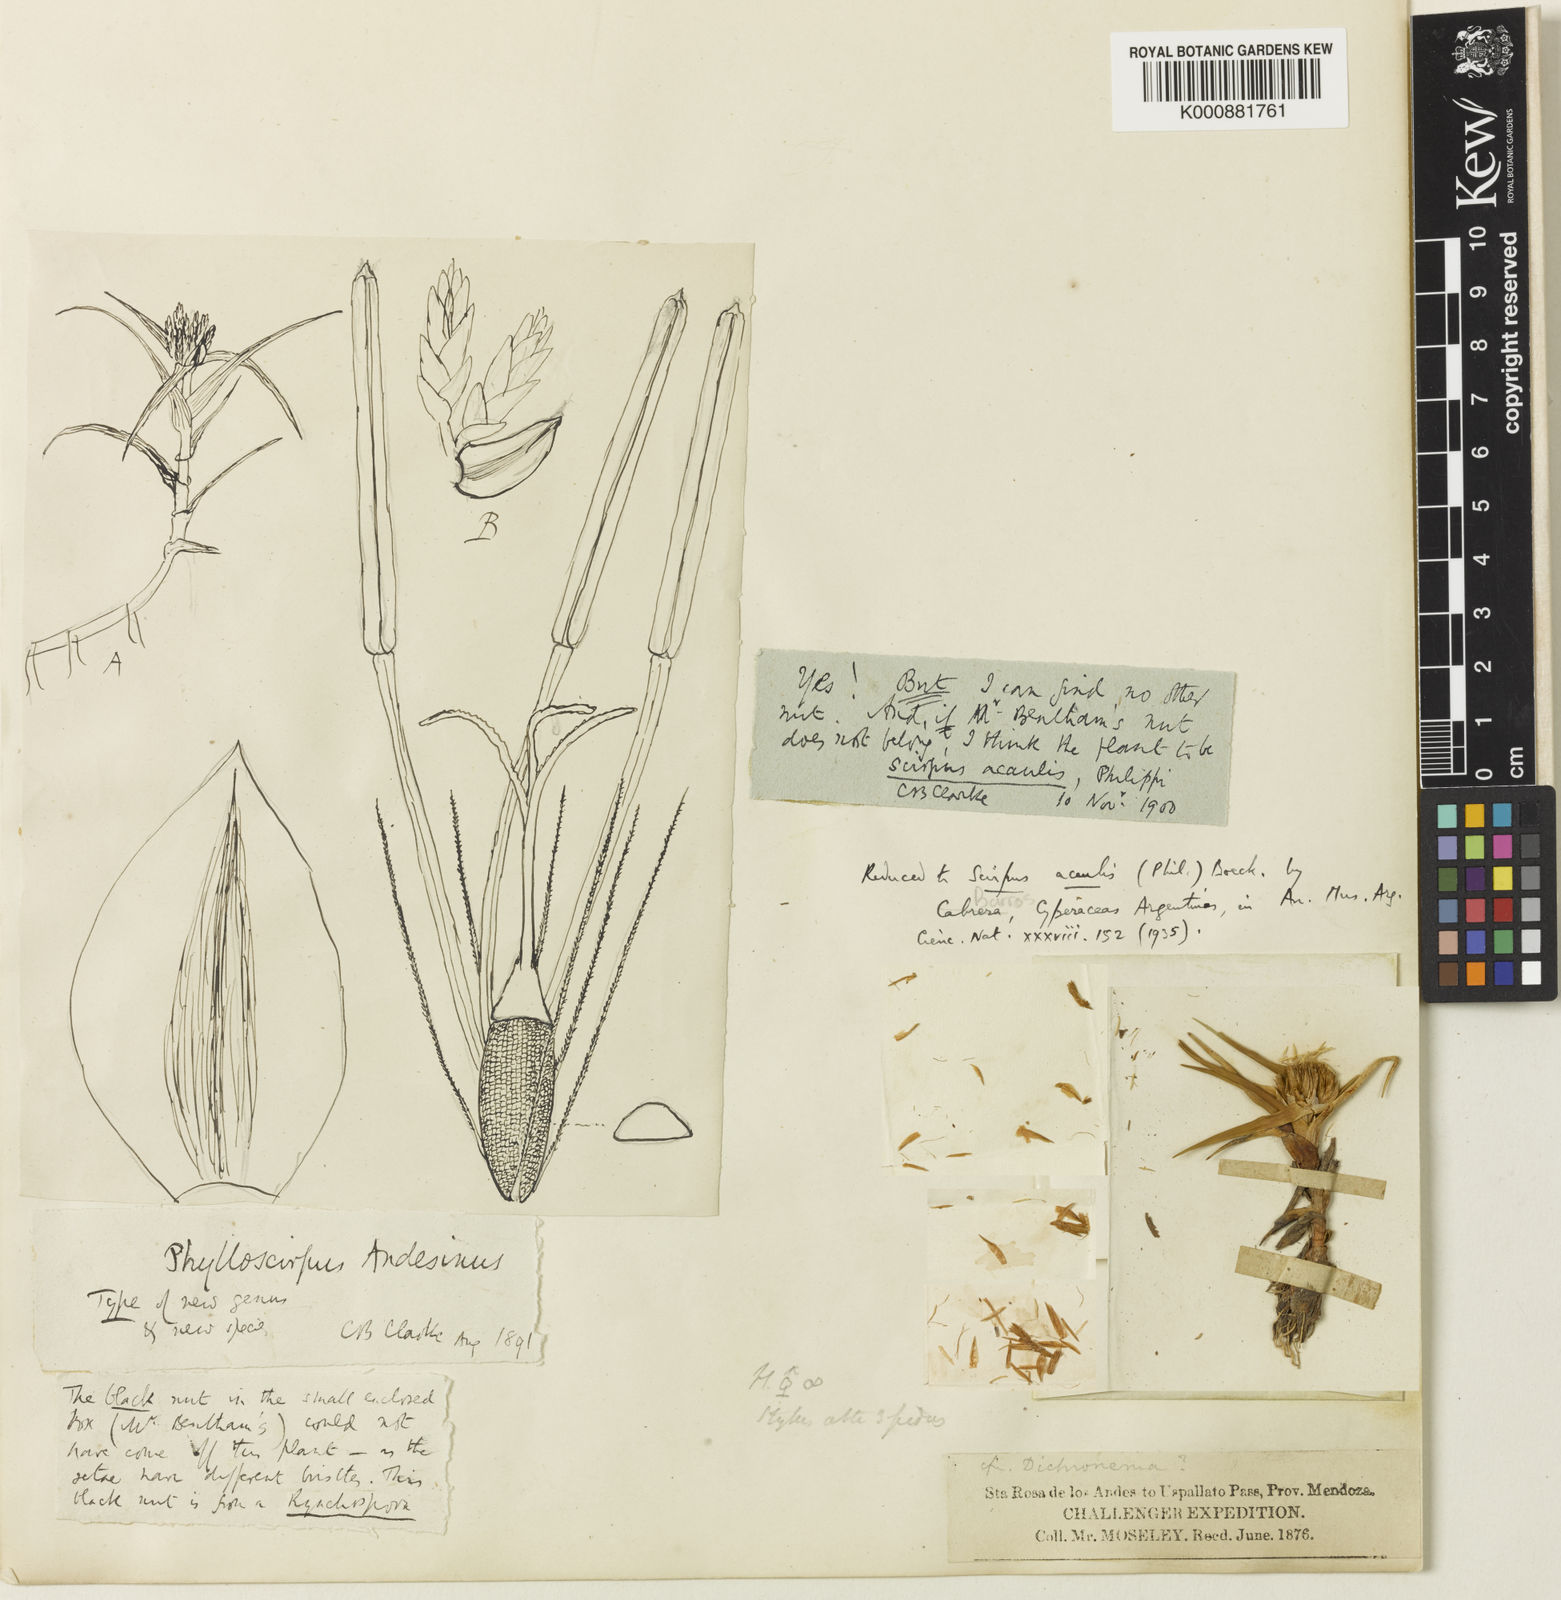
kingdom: Plantae
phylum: Tracheophyta
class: Liliopsida
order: Poales
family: Cyperaceae
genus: Phylloscirpus
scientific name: Phylloscirpus acaulis
